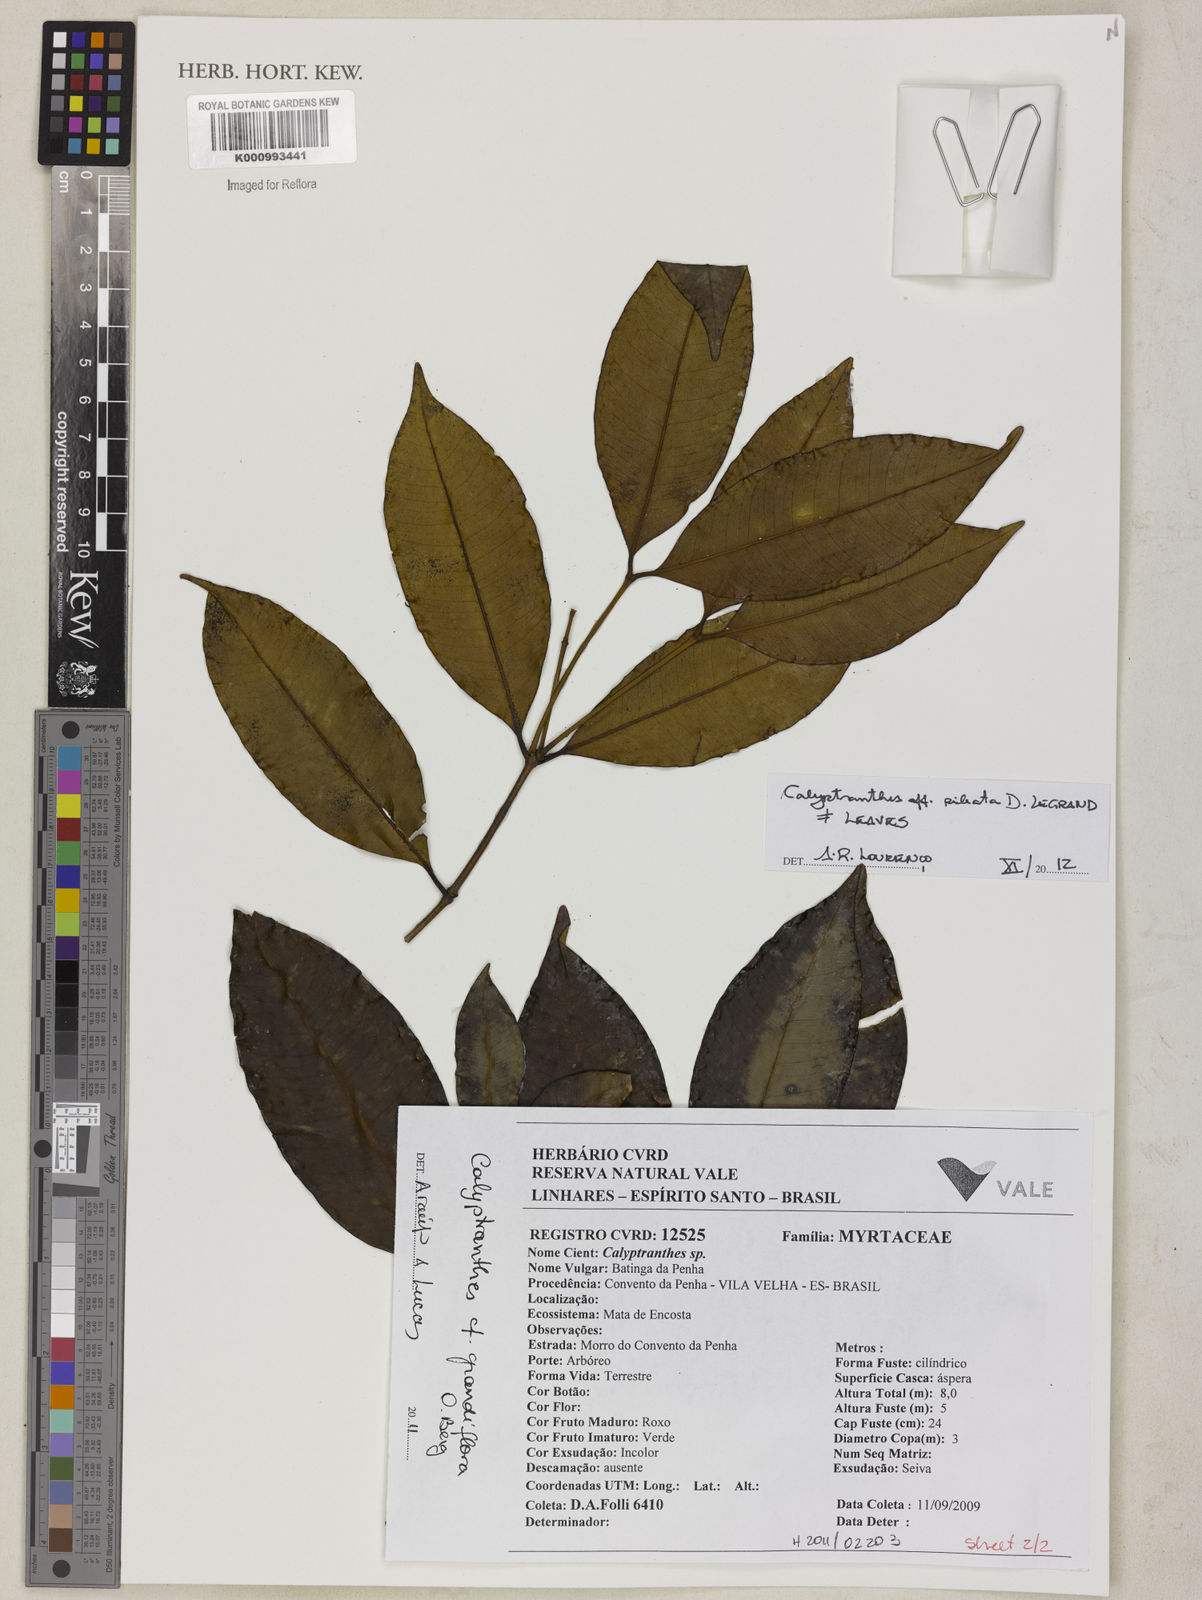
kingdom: Plantae
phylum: Tracheophyta
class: Magnoliopsida
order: Myrtales
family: Myrtaceae
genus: Calyptranthes
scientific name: Calyptranthes grandiflora
